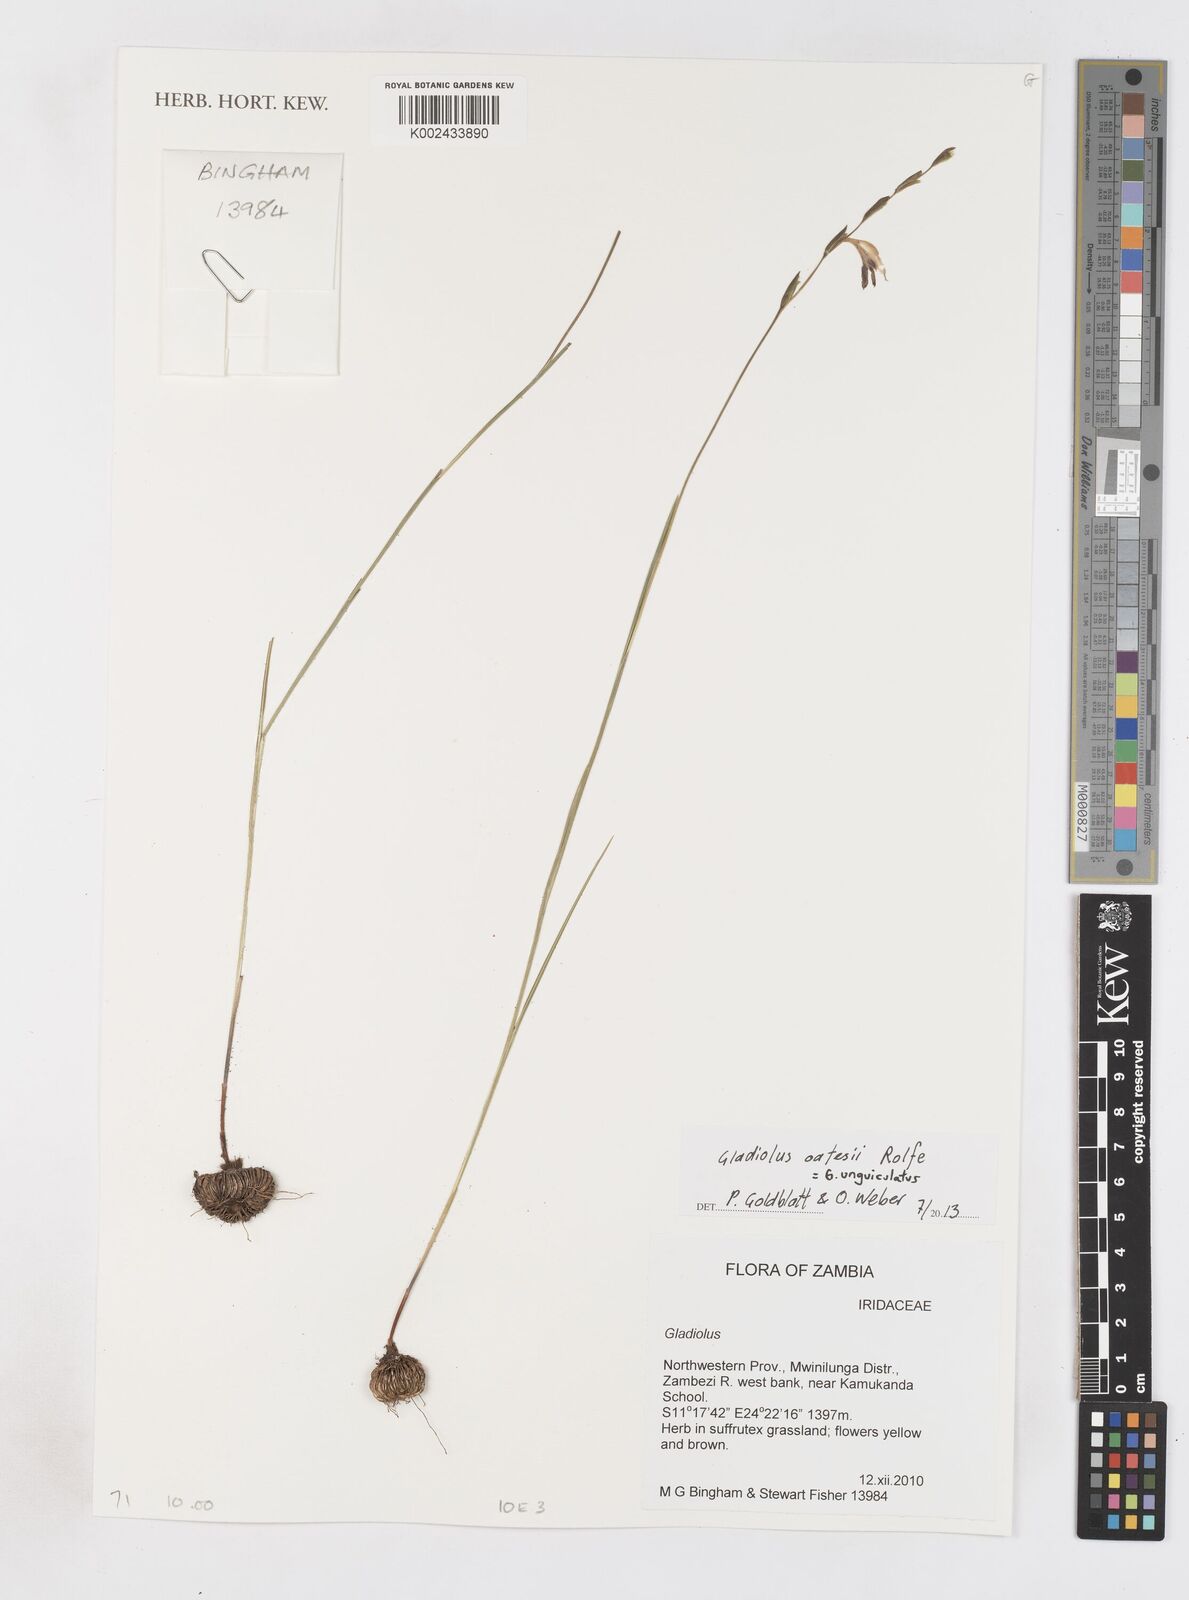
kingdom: Plantae
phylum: Tracheophyta
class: Liliopsida
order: Asparagales
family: Iridaceae
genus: Gladiolus
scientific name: Gladiolus unguiculatus
